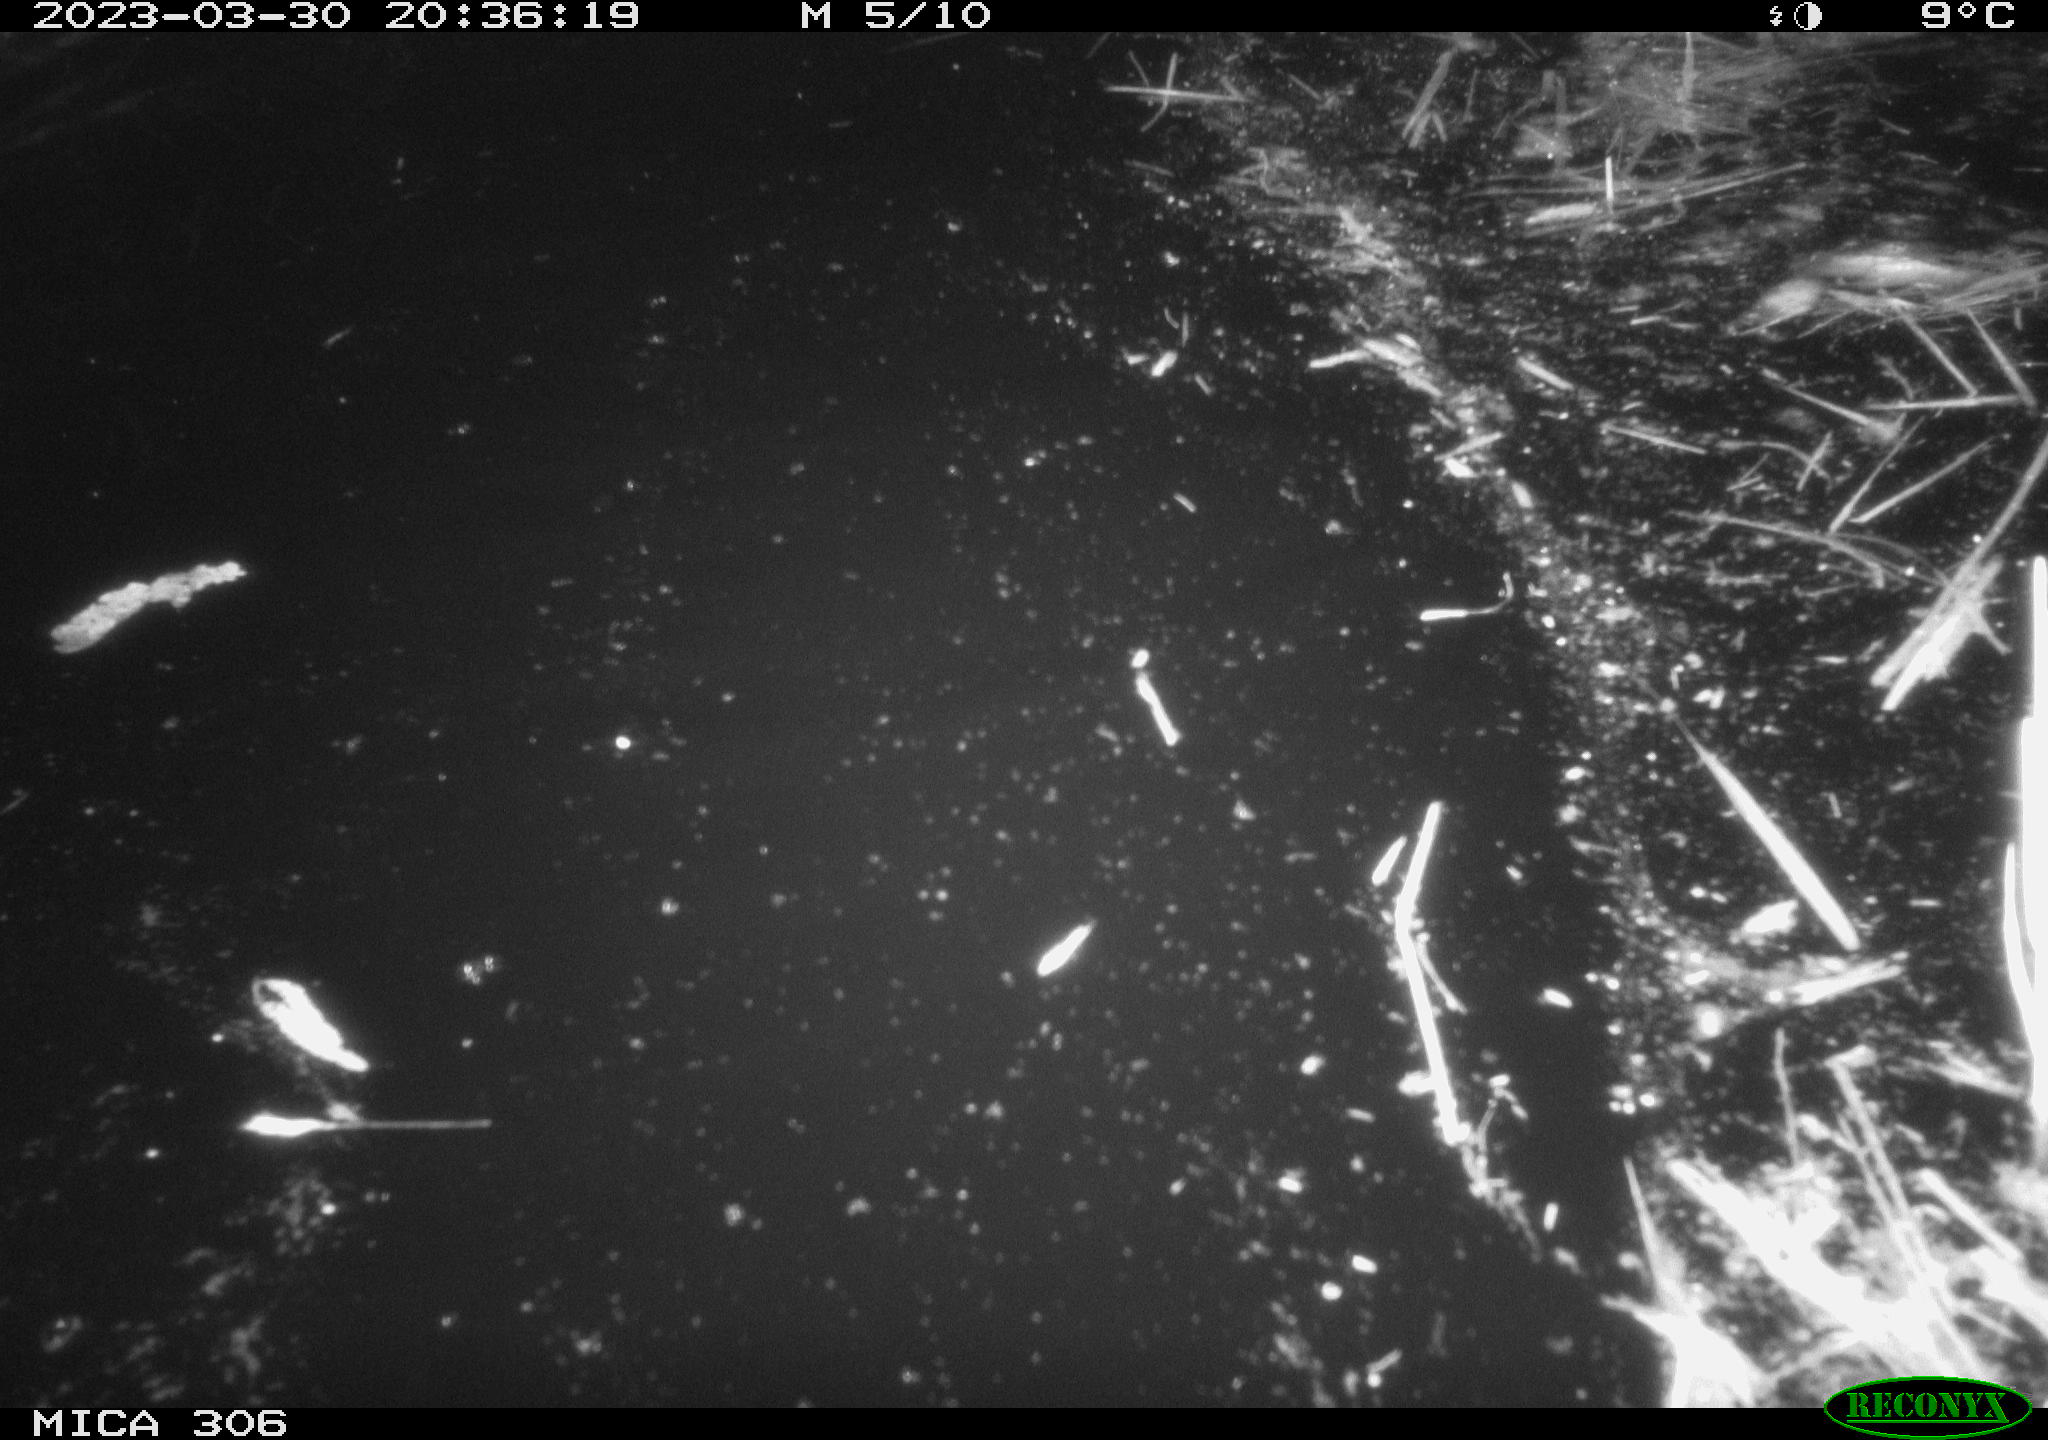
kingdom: Animalia
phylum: Chordata
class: Mammalia
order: Rodentia
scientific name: Rodentia
